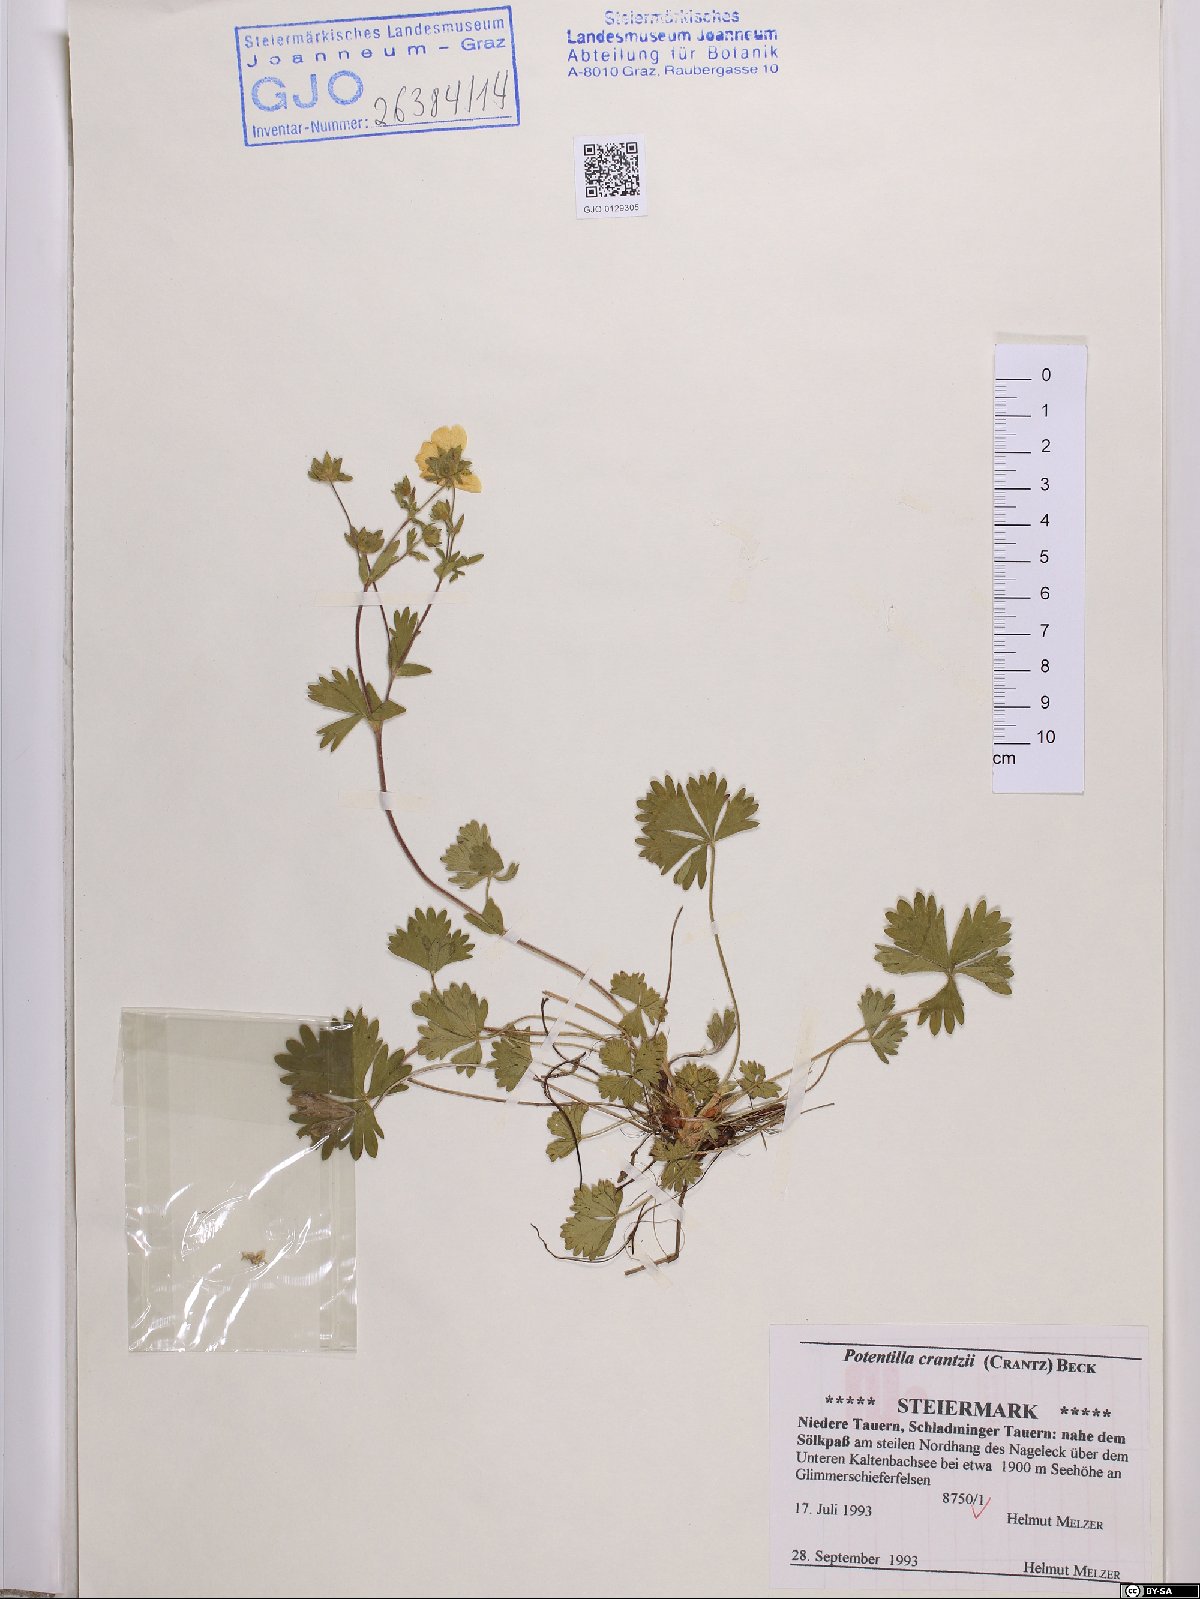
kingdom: Plantae
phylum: Tracheophyta
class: Magnoliopsida
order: Rosales
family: Rosaceae
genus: Potentilla
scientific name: Potentilla crantzii
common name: Alpine cinquefoil
